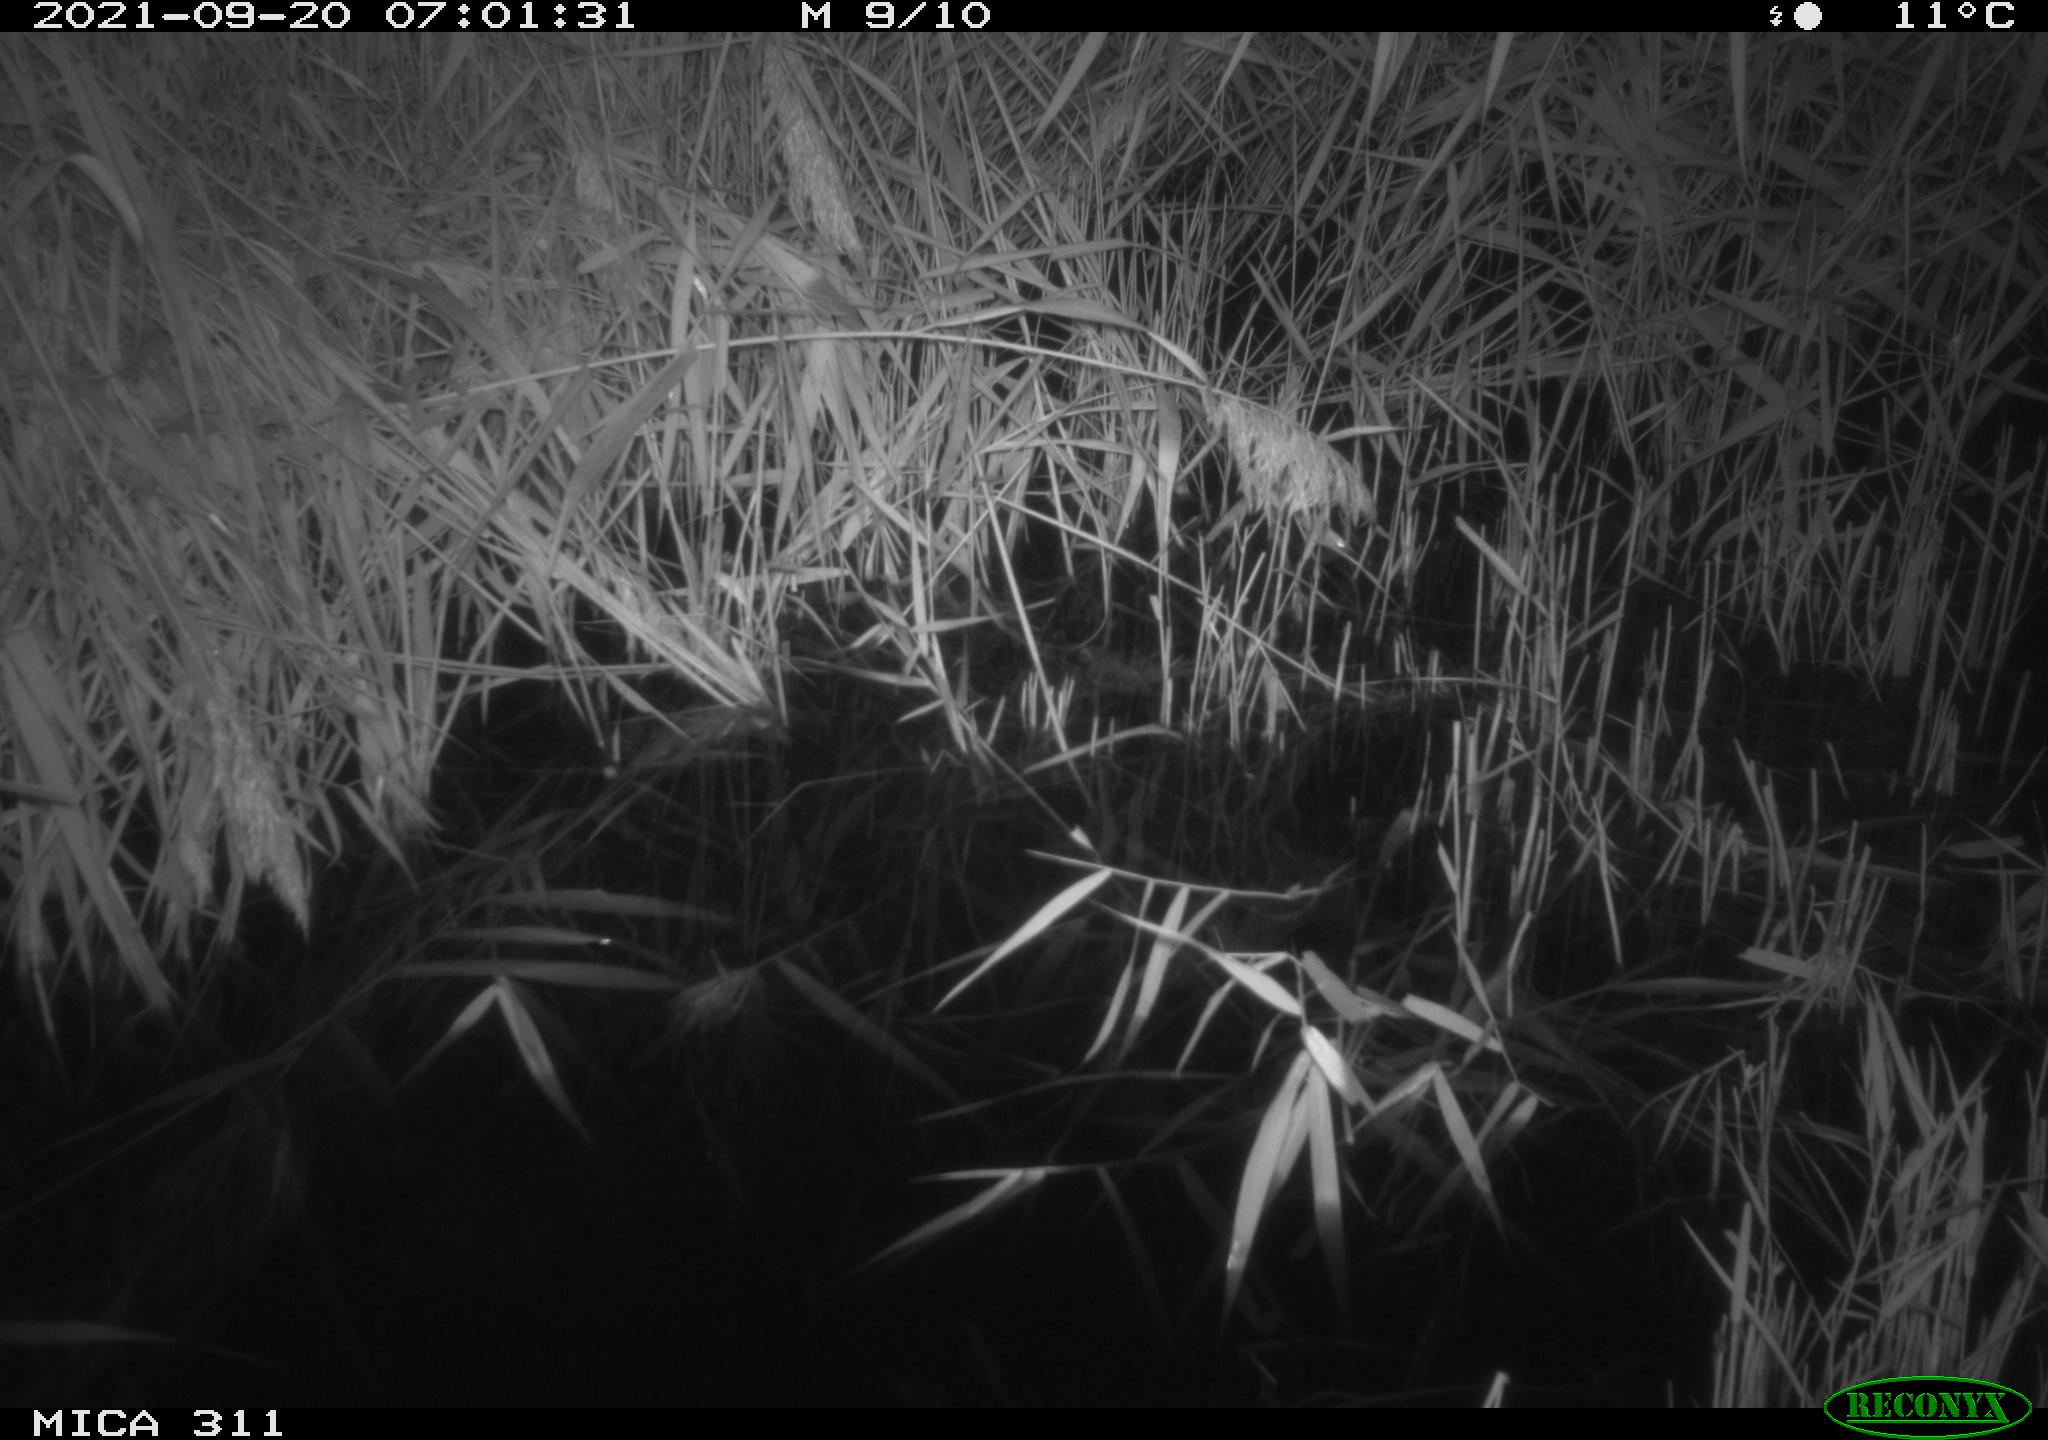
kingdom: Animalia
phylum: Chordata
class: Mammalia
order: Rodentia
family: Muridae
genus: Rattus
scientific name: Rattus norvegicus
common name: Brown rat
